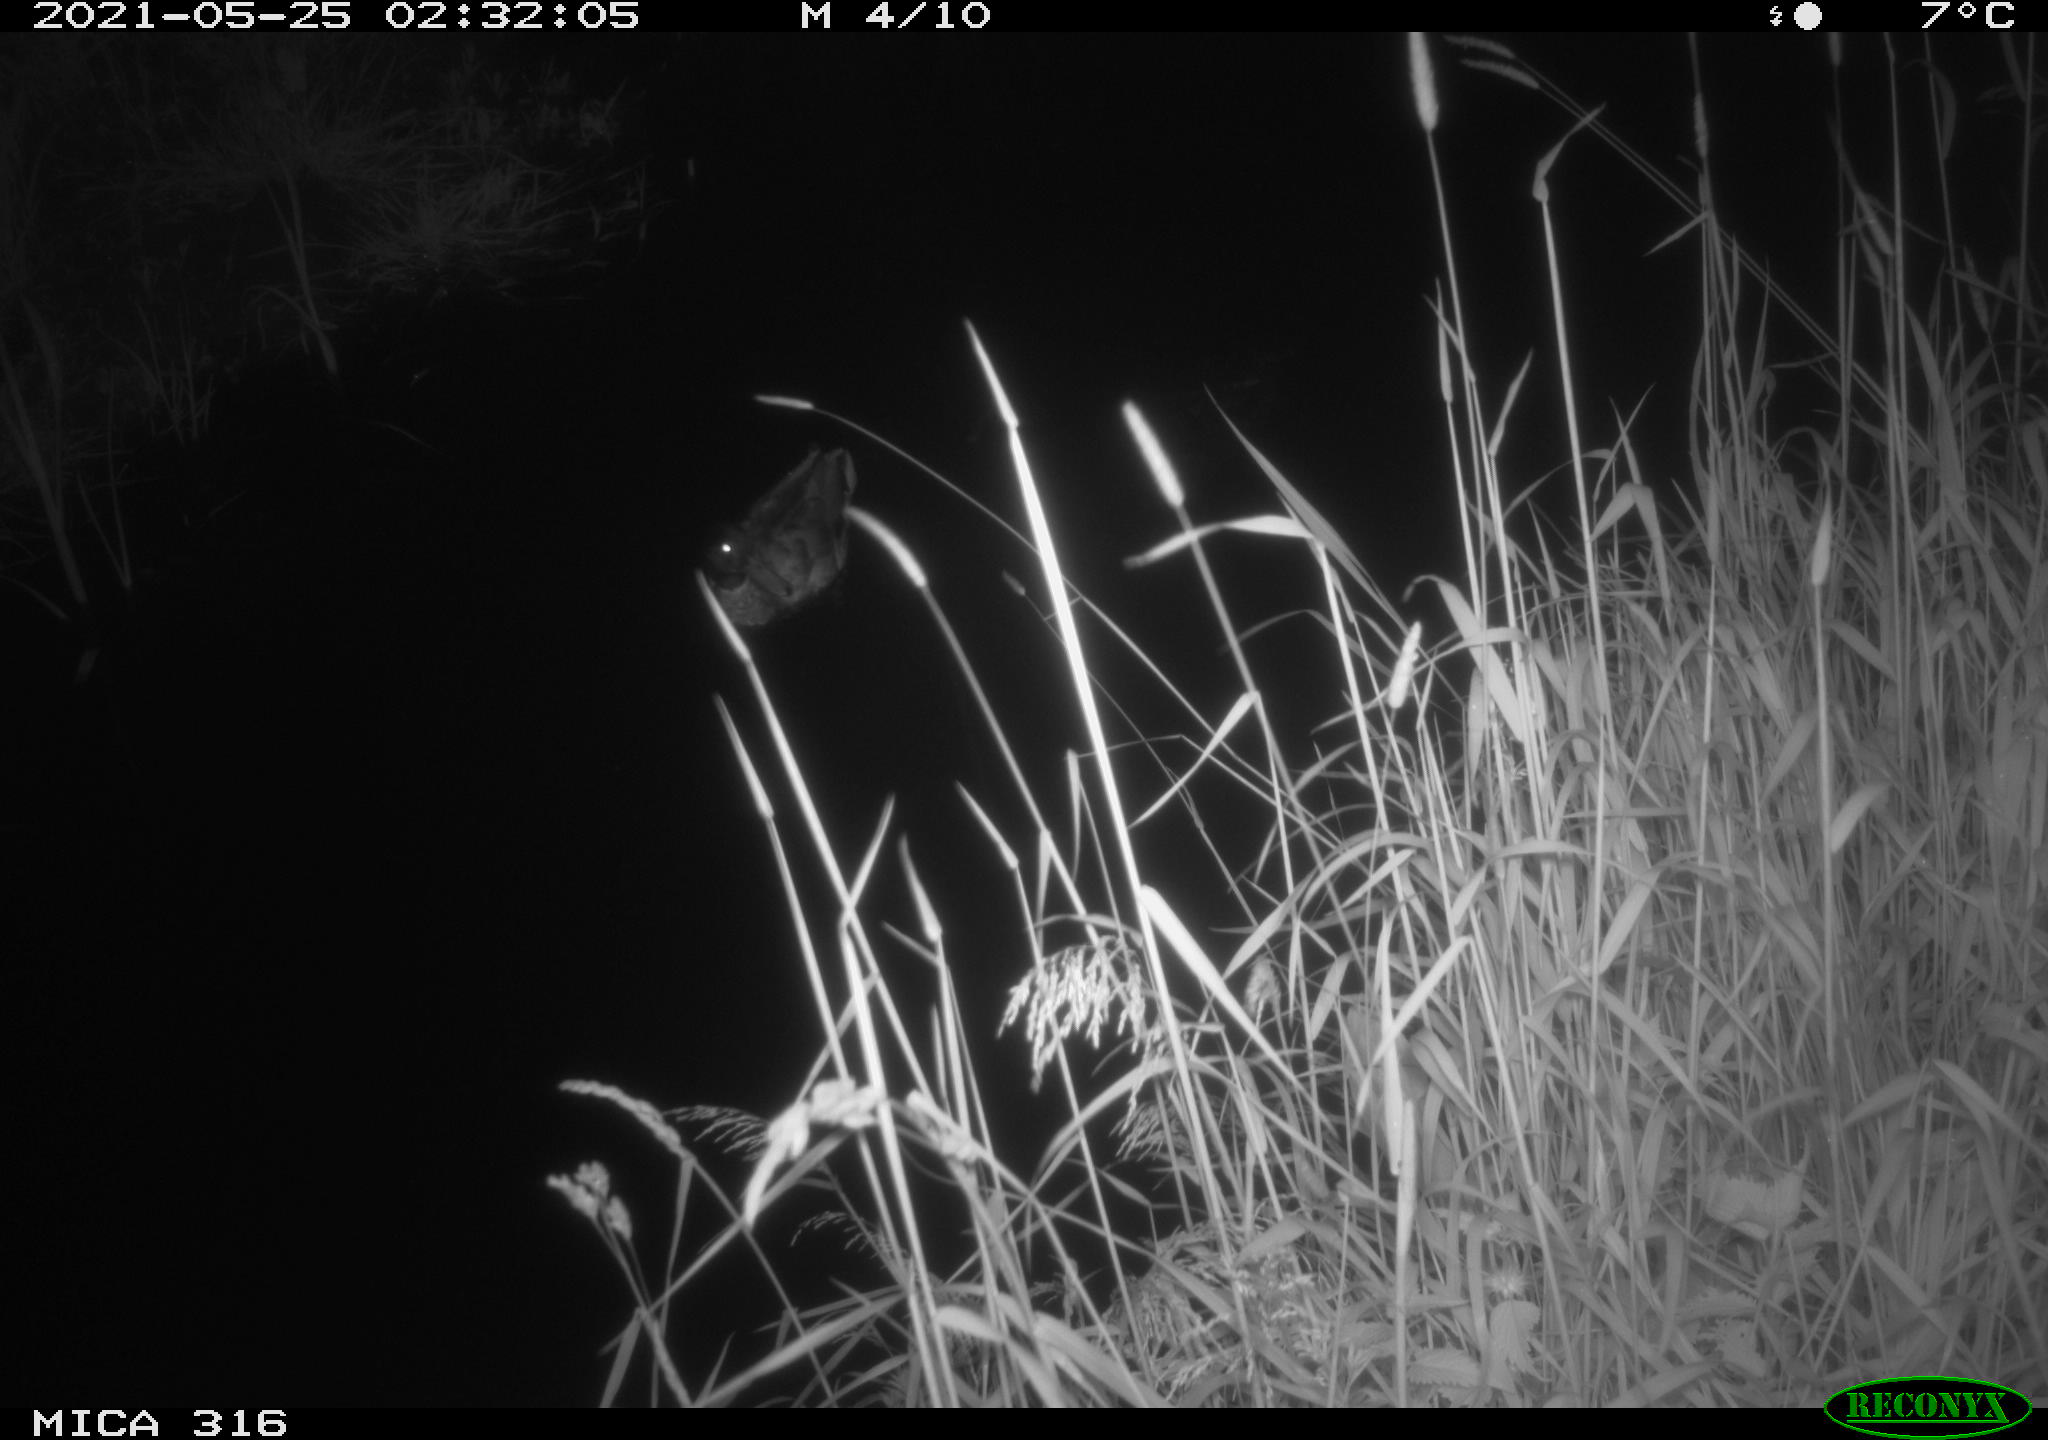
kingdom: Animalia
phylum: Chordata
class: Aves
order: Anseriformes
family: Anatidae
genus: Anas
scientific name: Anas platyrhynchos
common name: Mallard
